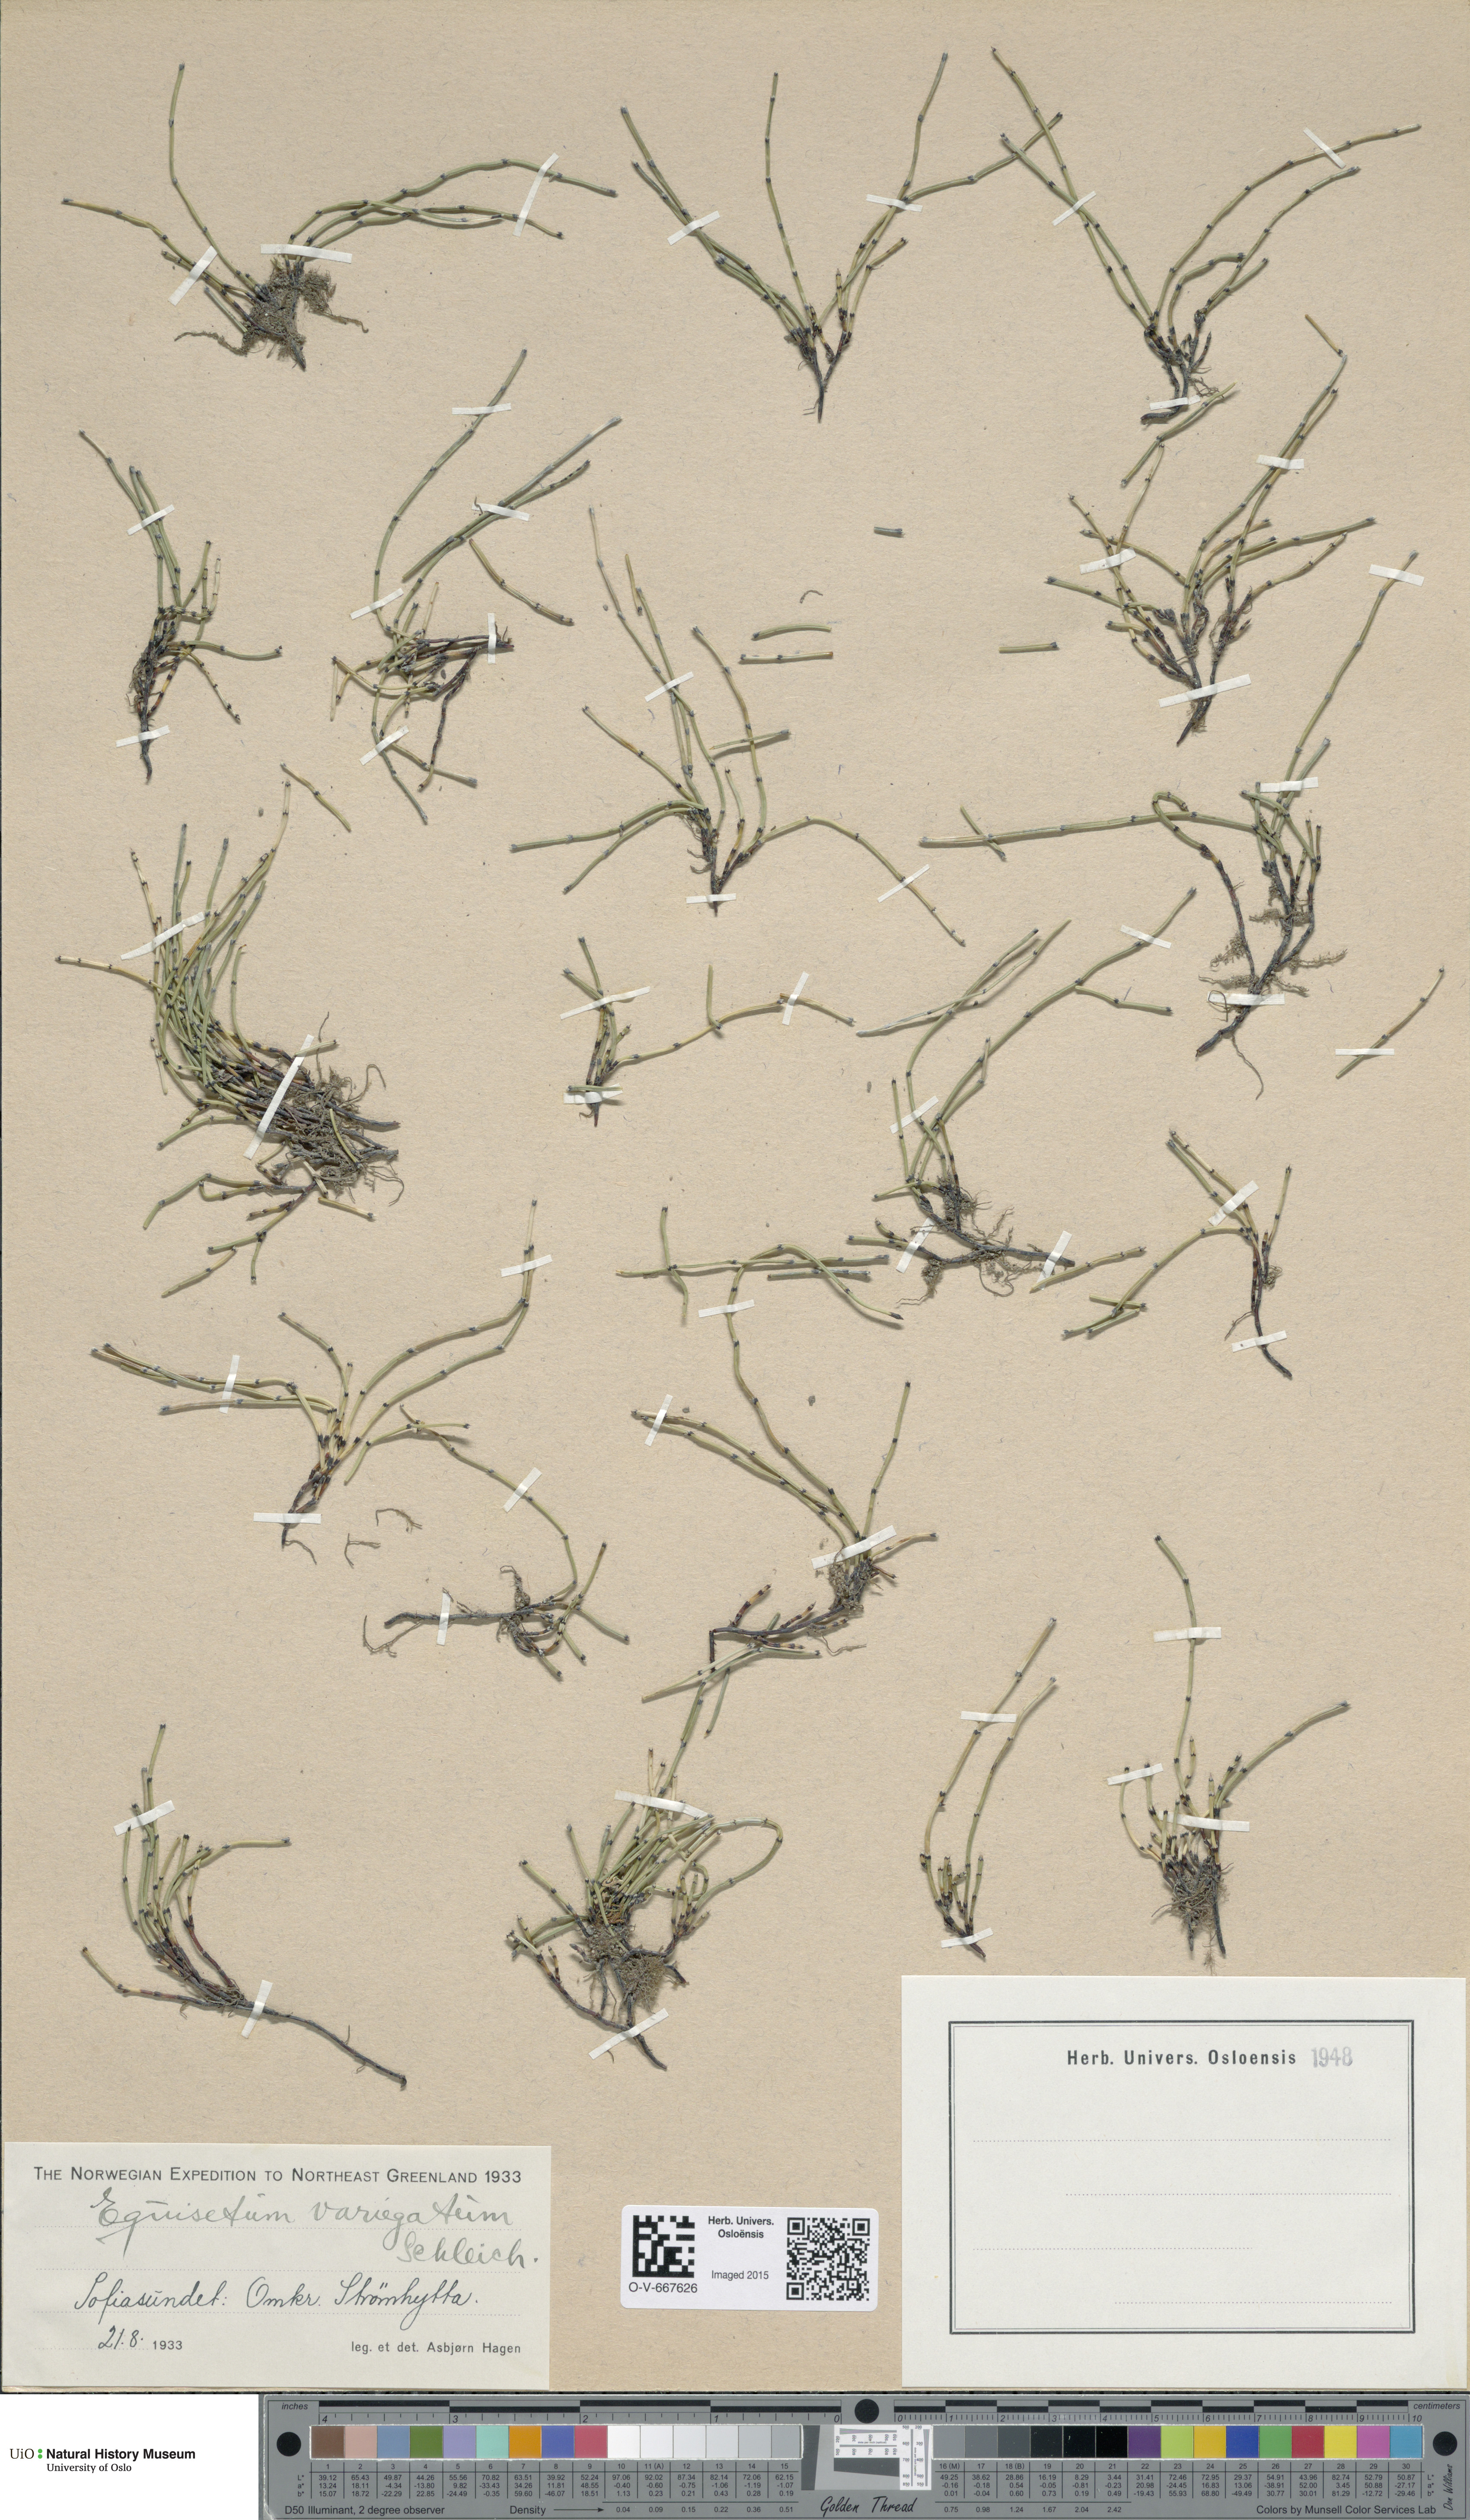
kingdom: Plantae
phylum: Tracheophyta
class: Polypodiopsida
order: Equisetales
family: Equisetaceae
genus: Equisetum
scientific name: Equisetum variegatum
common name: Variegated horsetail
